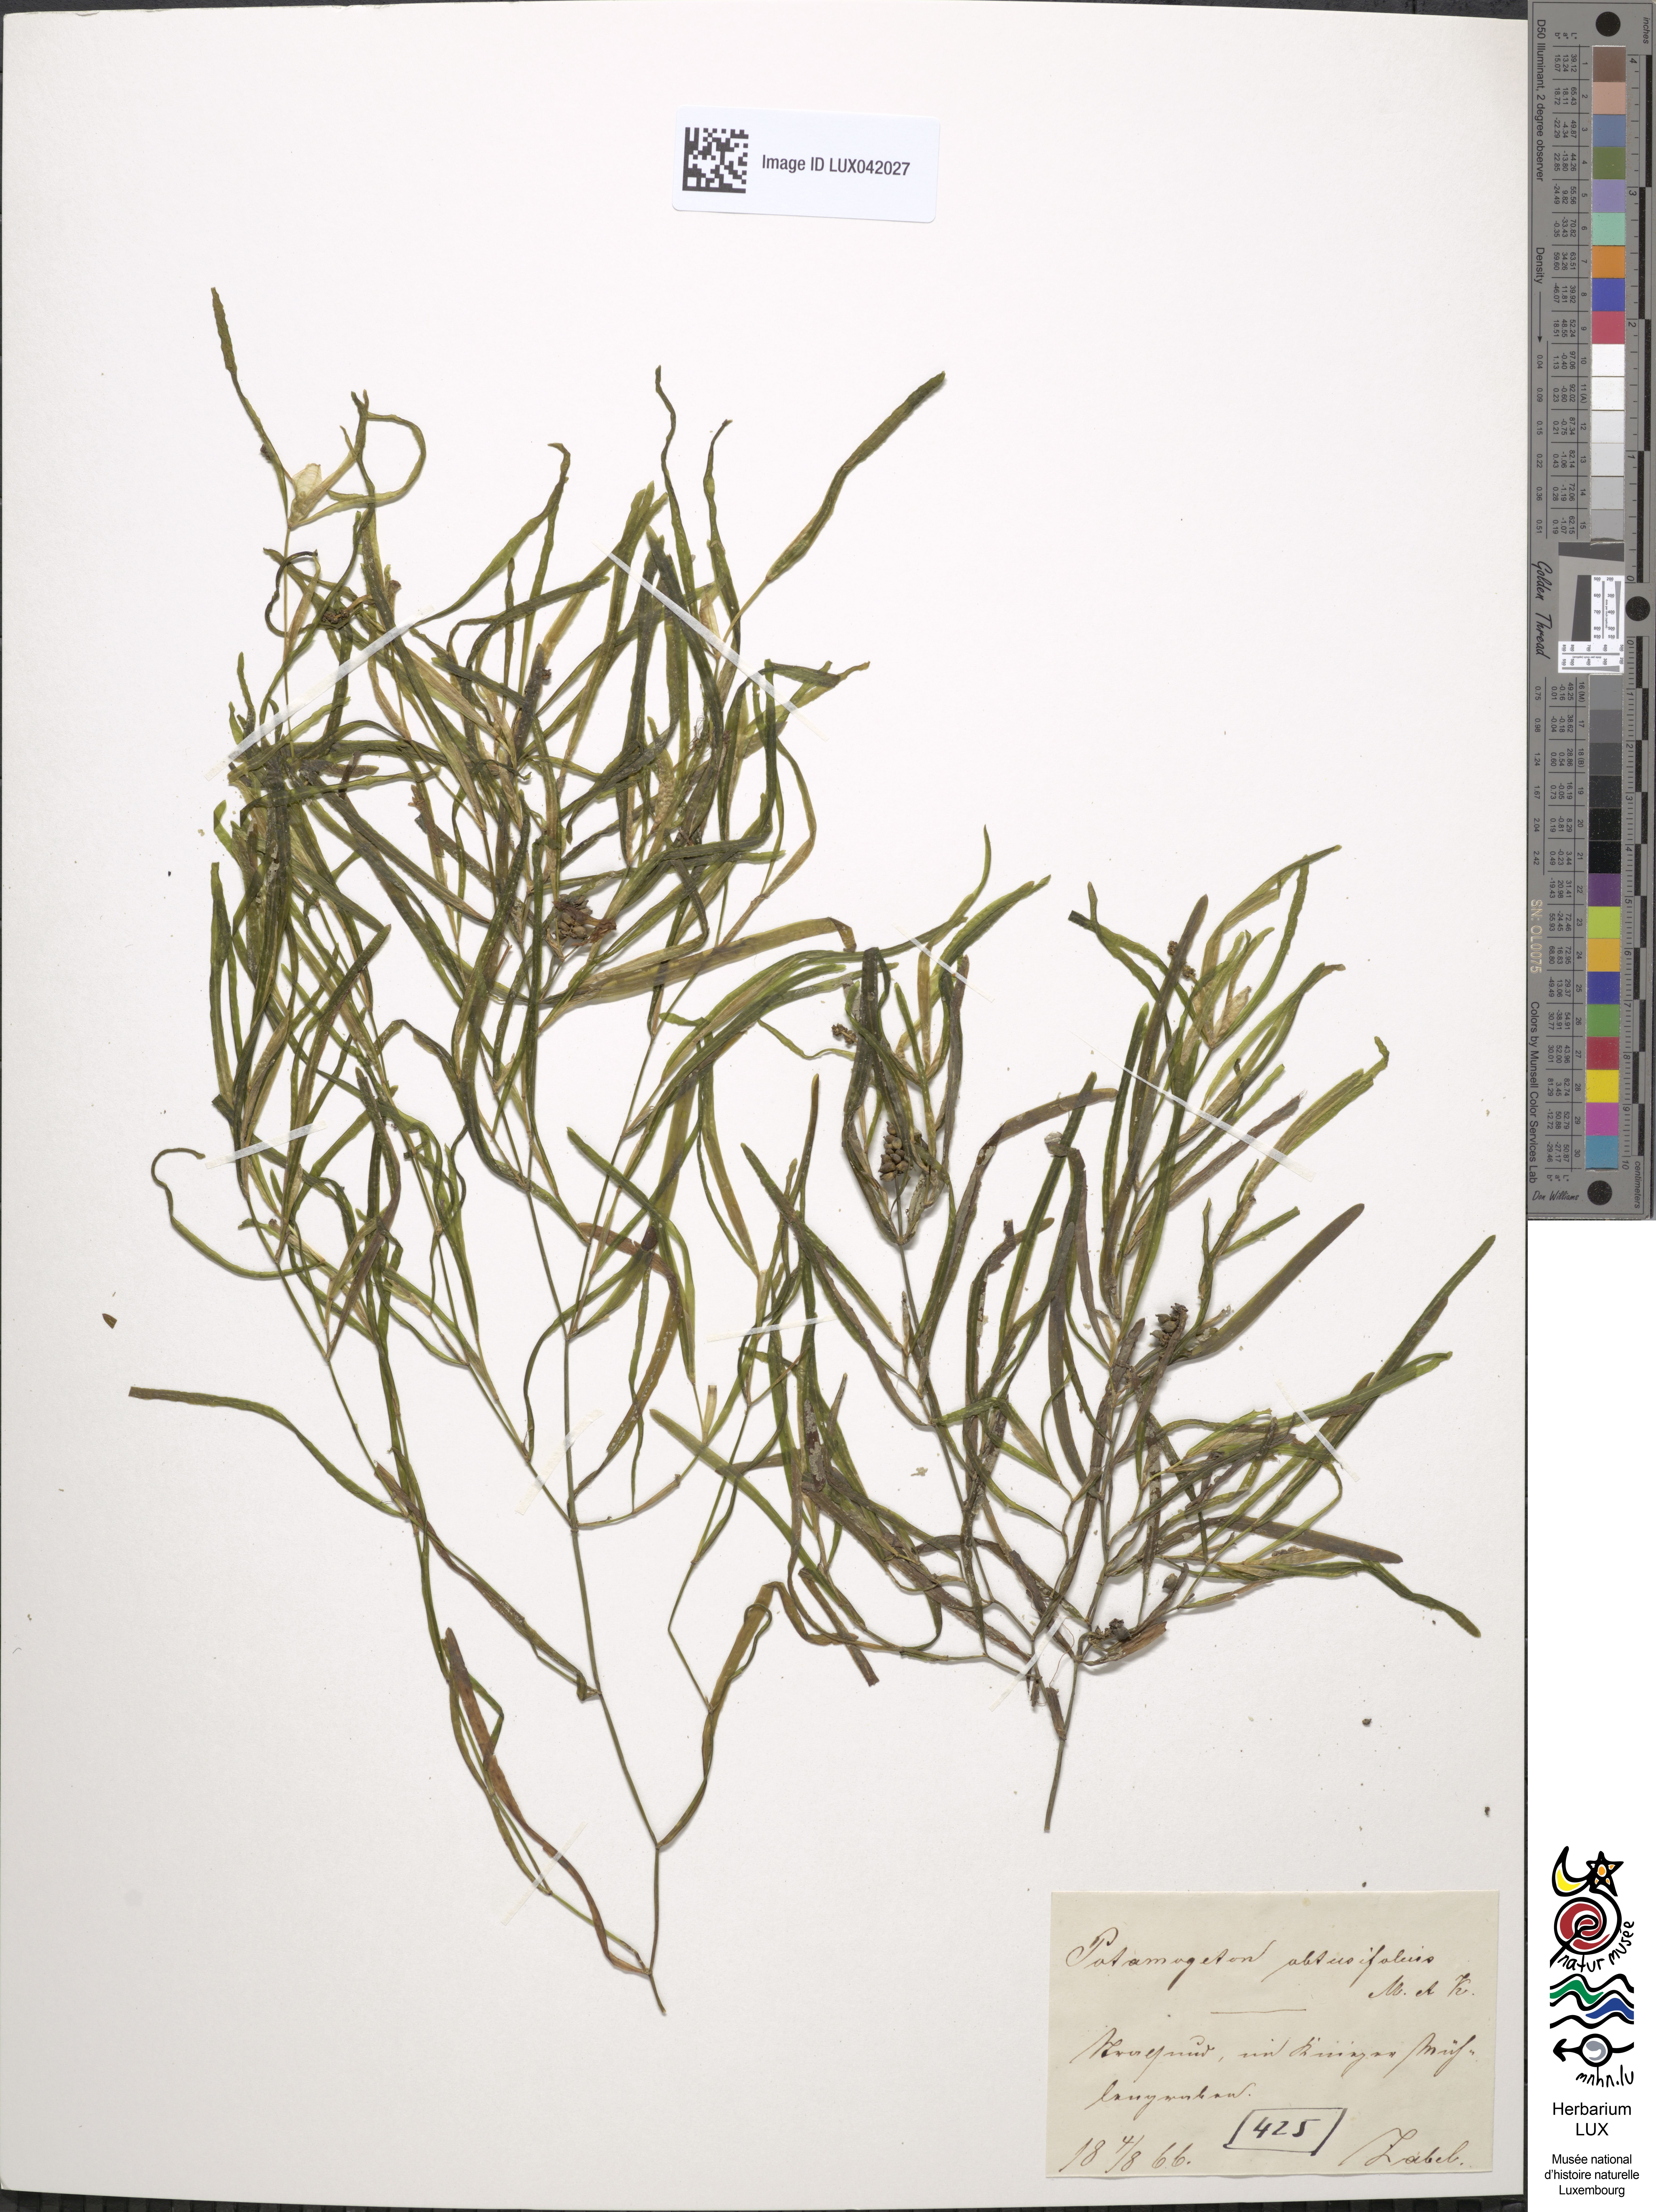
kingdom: Plantae
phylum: Tracheophyta
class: Liliopsida
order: Alismatales
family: Potamogetonaceae
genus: Potamogeton
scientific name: Potamogeton obtusifolius
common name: Blunt-leaved pondweed
